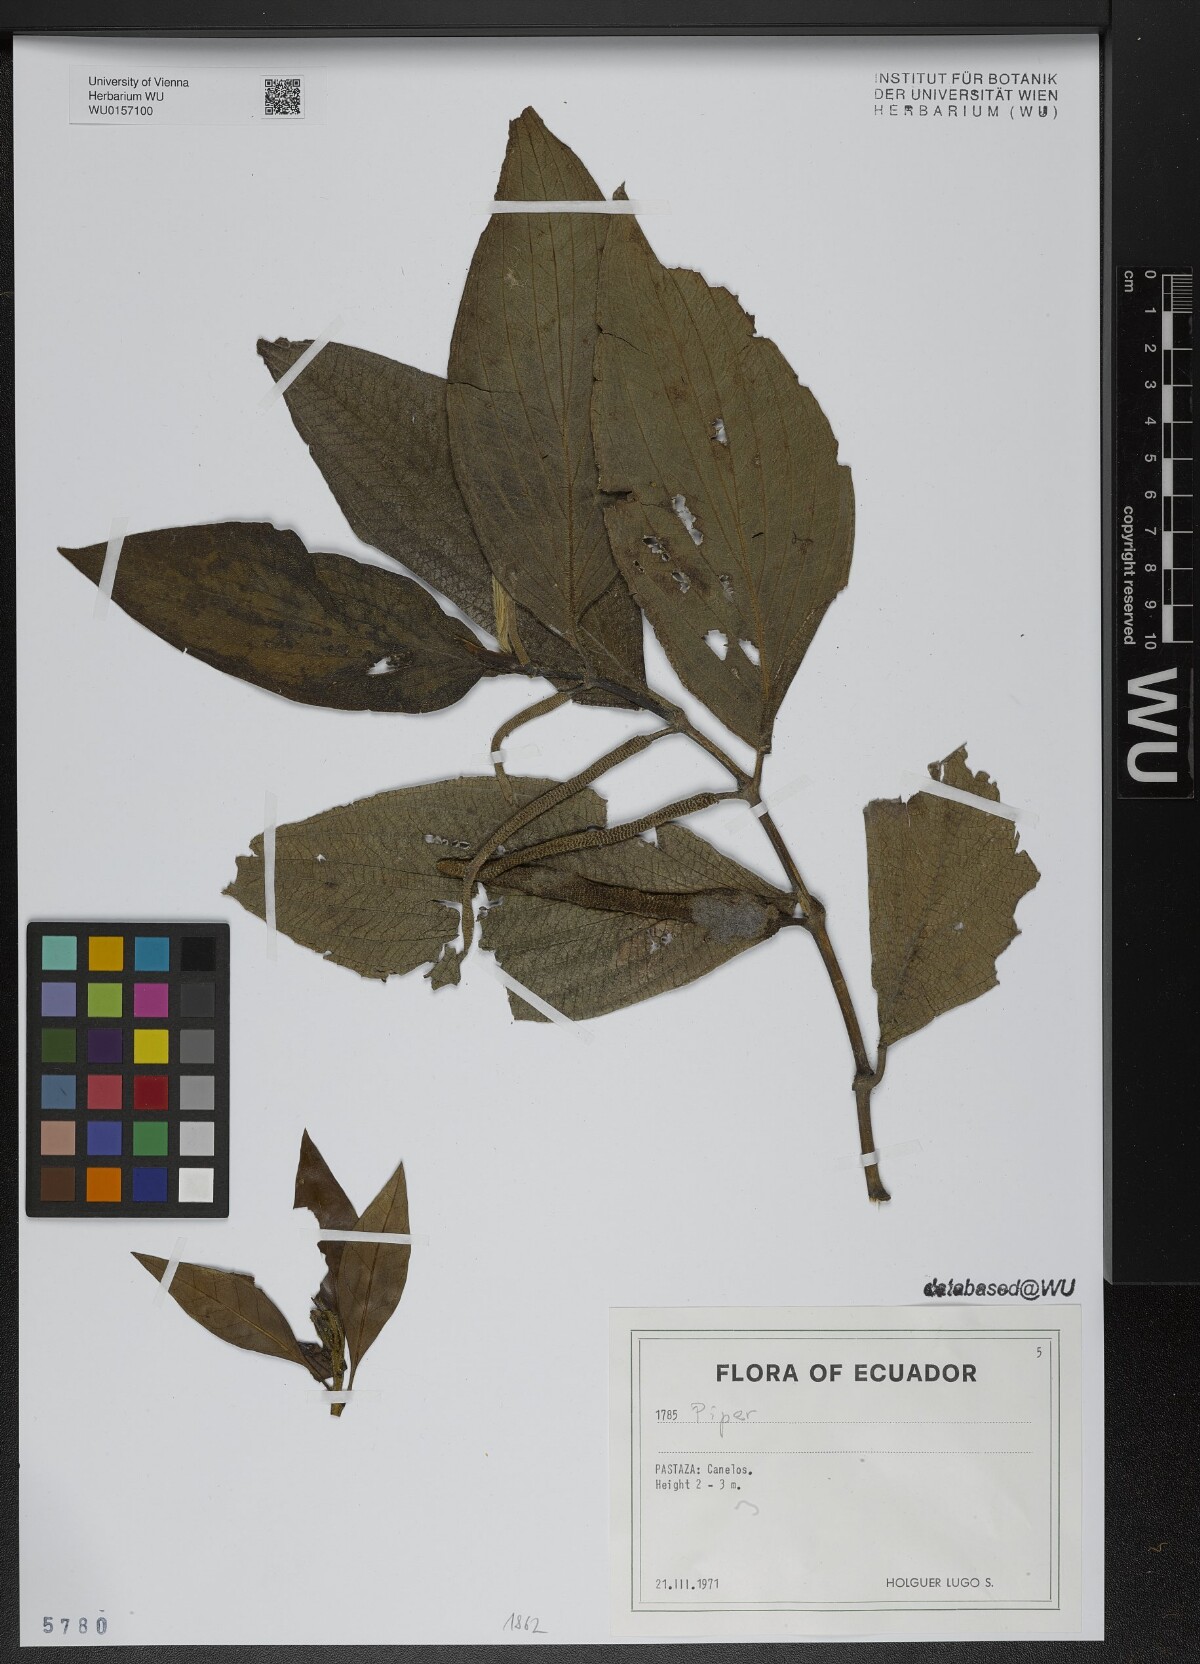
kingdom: Plantae
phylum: Tracheophyta
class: Magnoliopsida
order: Piperales
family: Piperaceae
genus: Piper
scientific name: Piper
